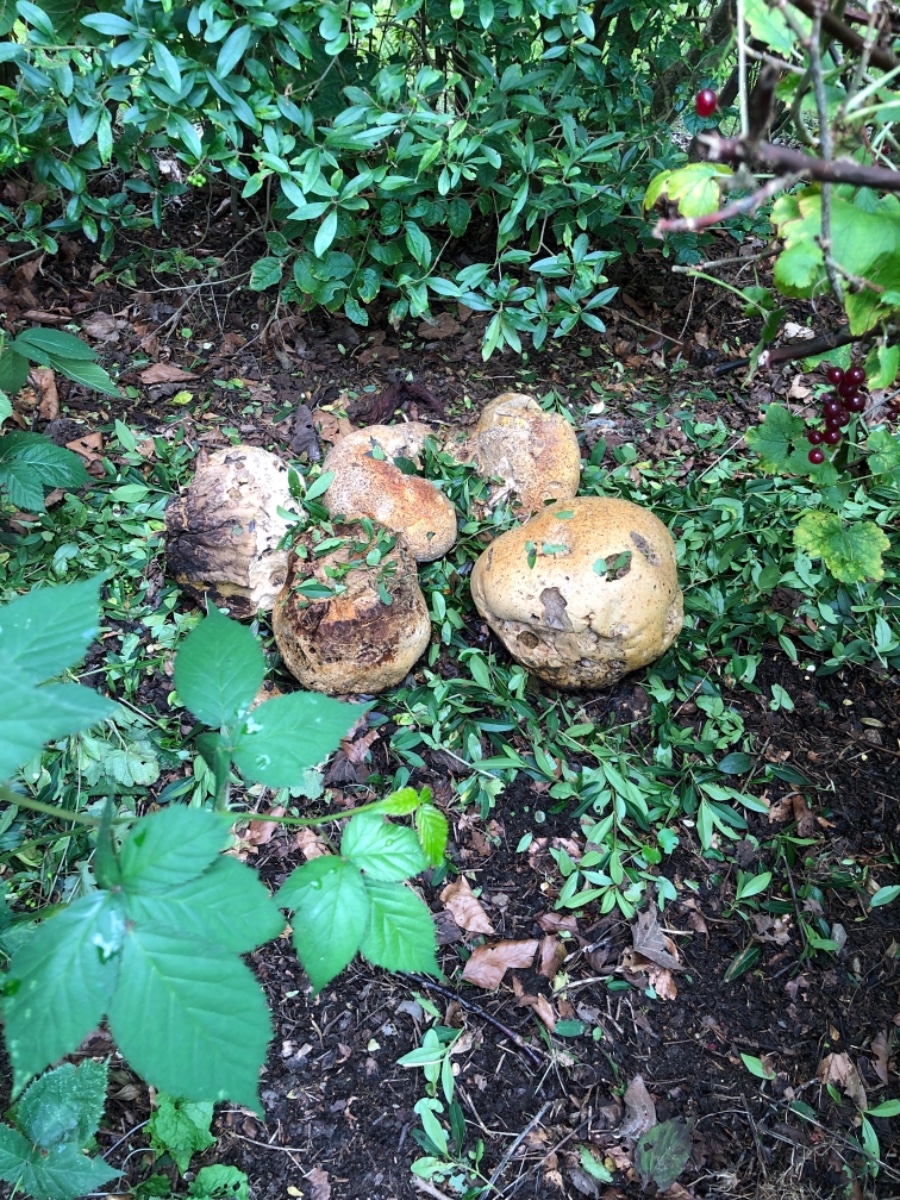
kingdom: Fungi
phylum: Basidiomycota
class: Agaricomycetes
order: Agaricales
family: Lycoperdaceae
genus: Calvatia
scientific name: Calvatia gigantea
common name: kæmpestøvbold
